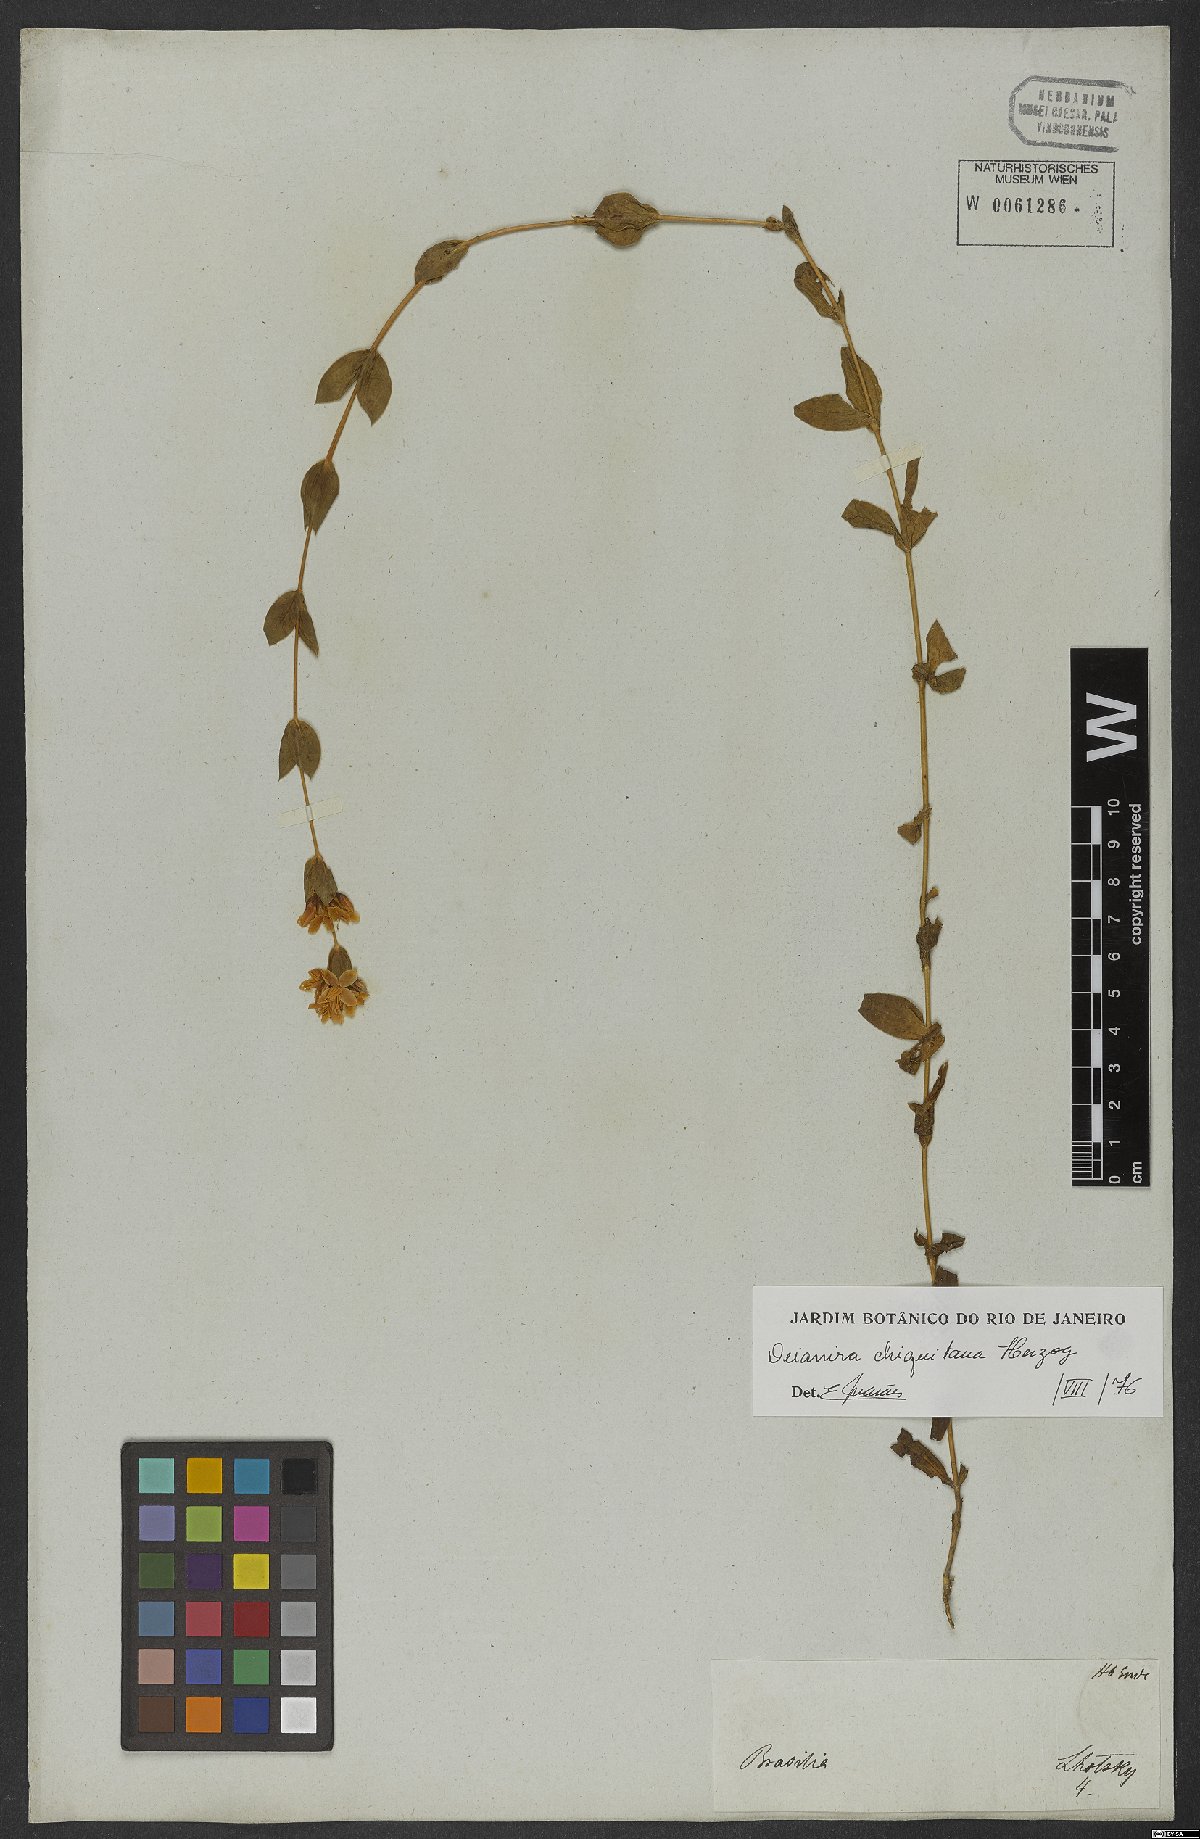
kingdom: Plantae
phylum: Tracheophyta
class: Magnoliopsida
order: Gentianales
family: Gentianaceae
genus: Deianira
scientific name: Deianira chiquitana
